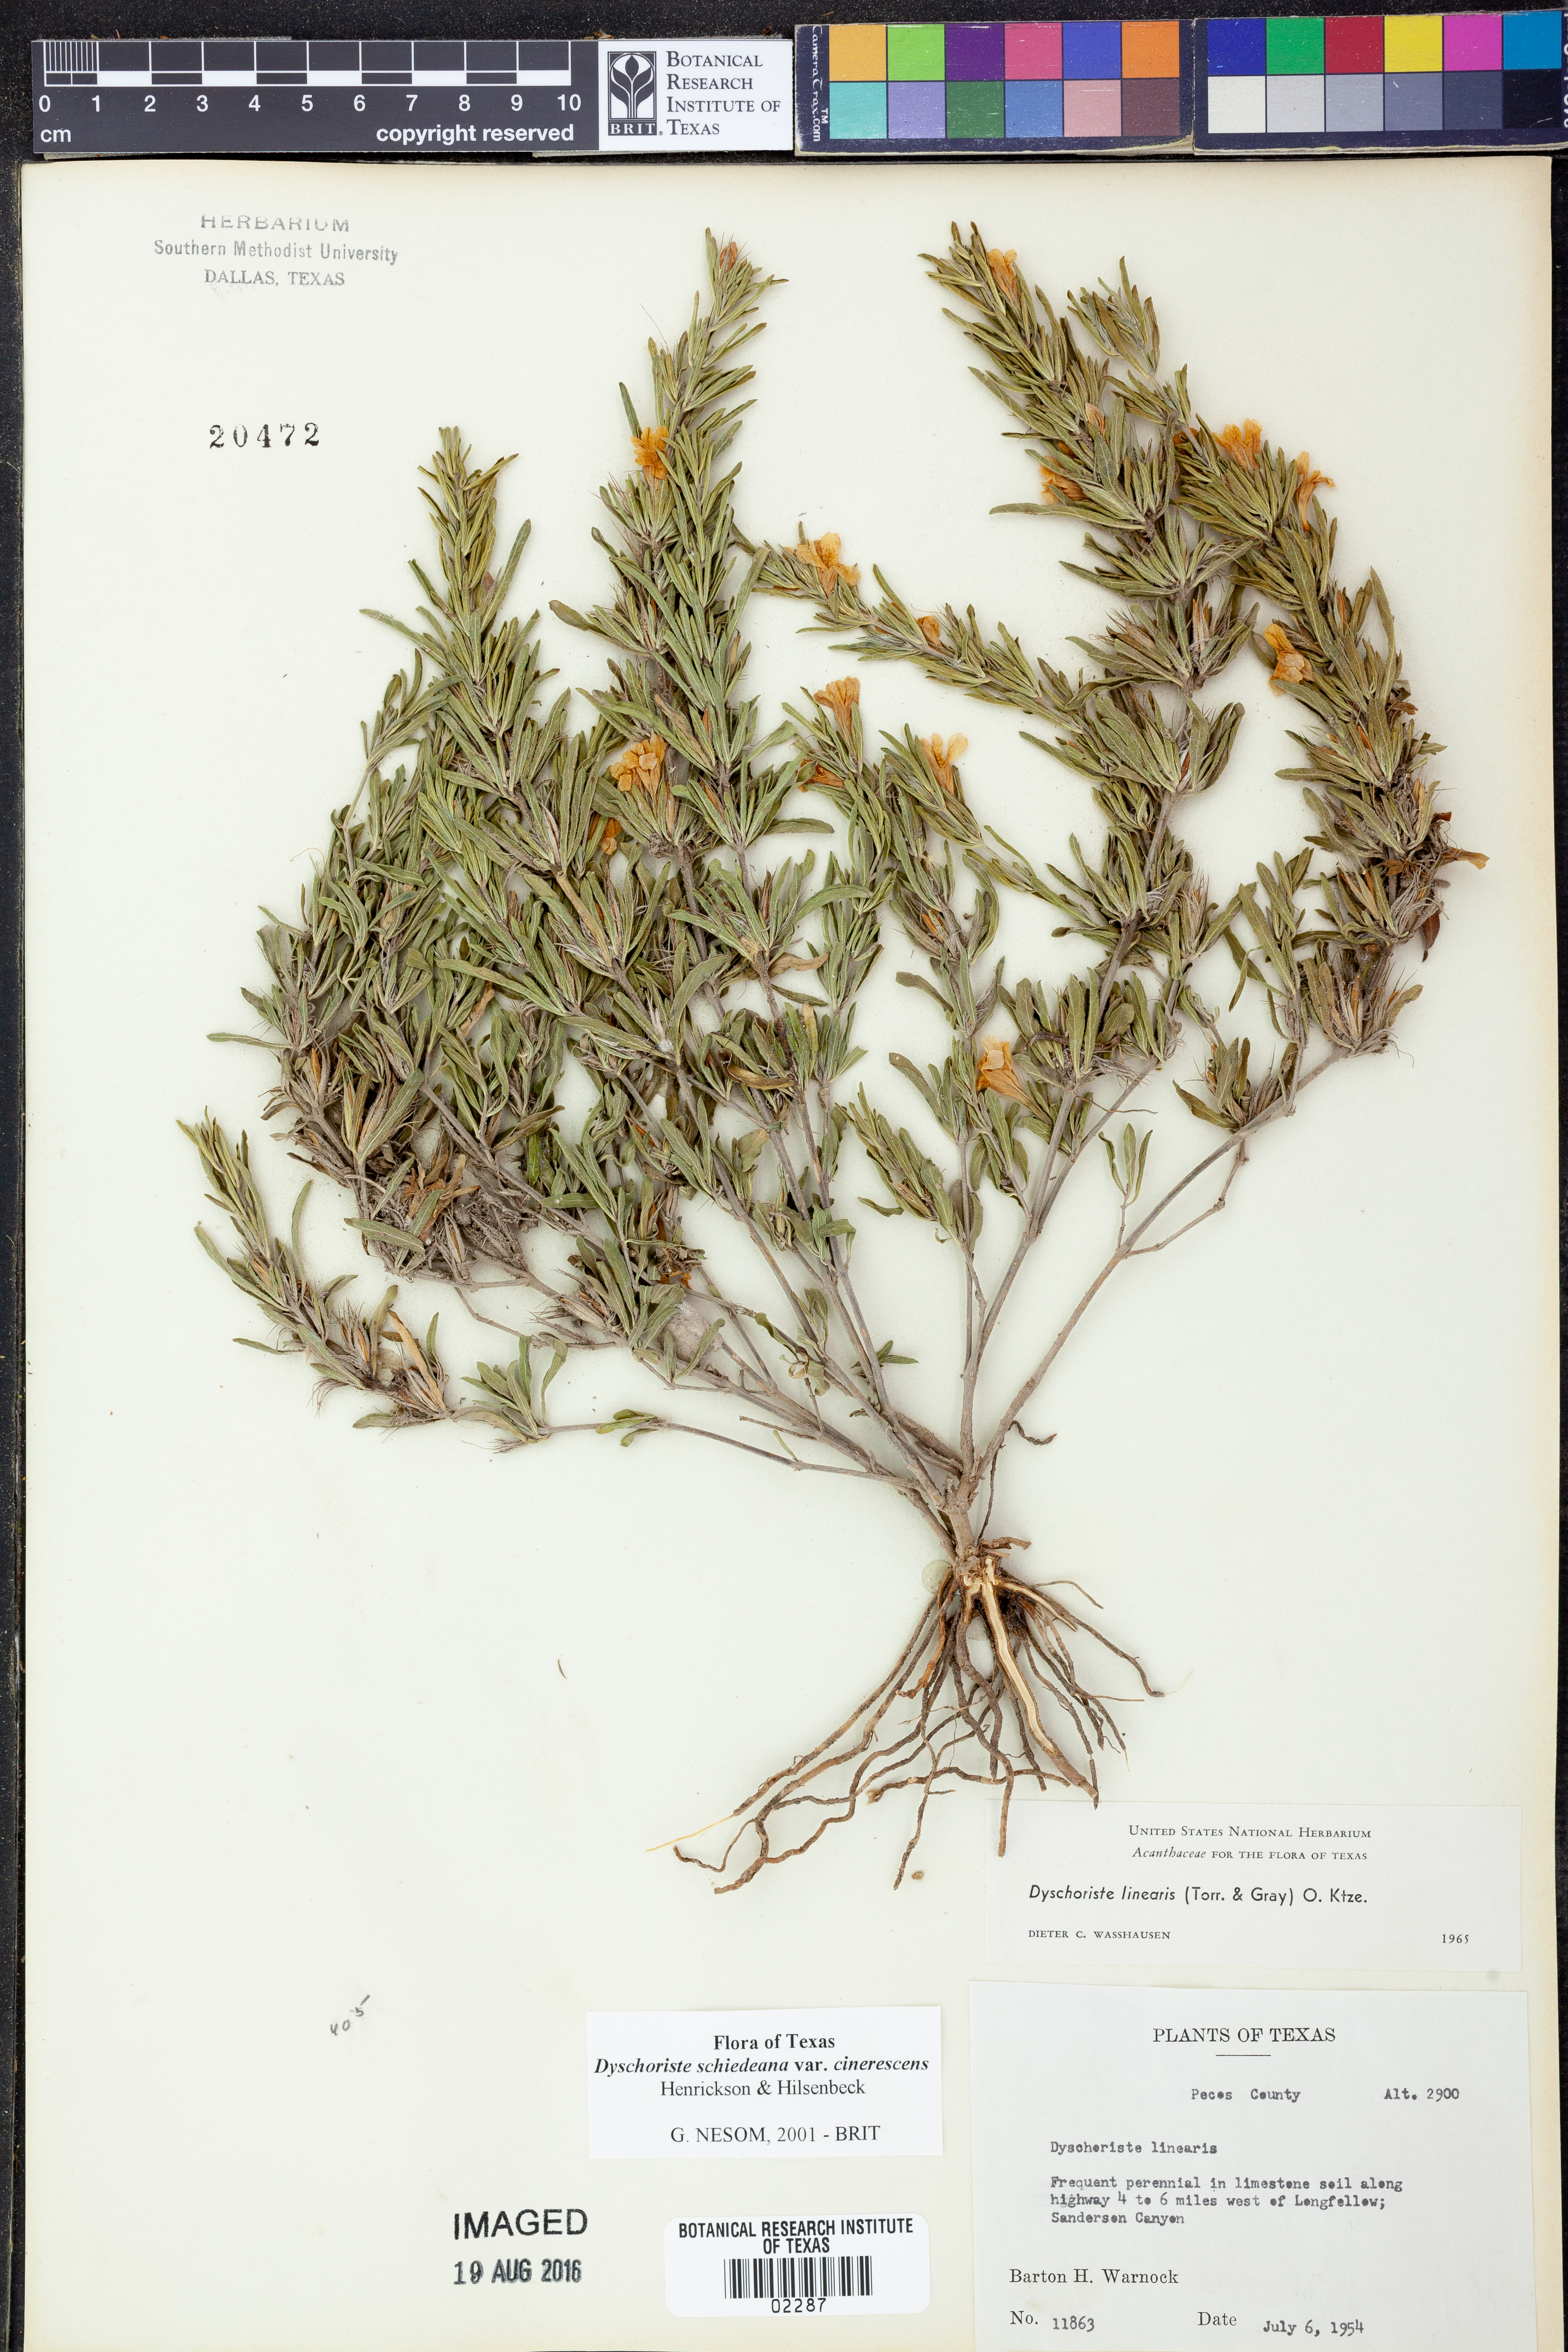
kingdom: Plantae
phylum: Tracheophyta
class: Magnoliopsida
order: Lamiales
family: Acanthaceae
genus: Dyschoriste
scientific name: Dyschoriste cinerascens
